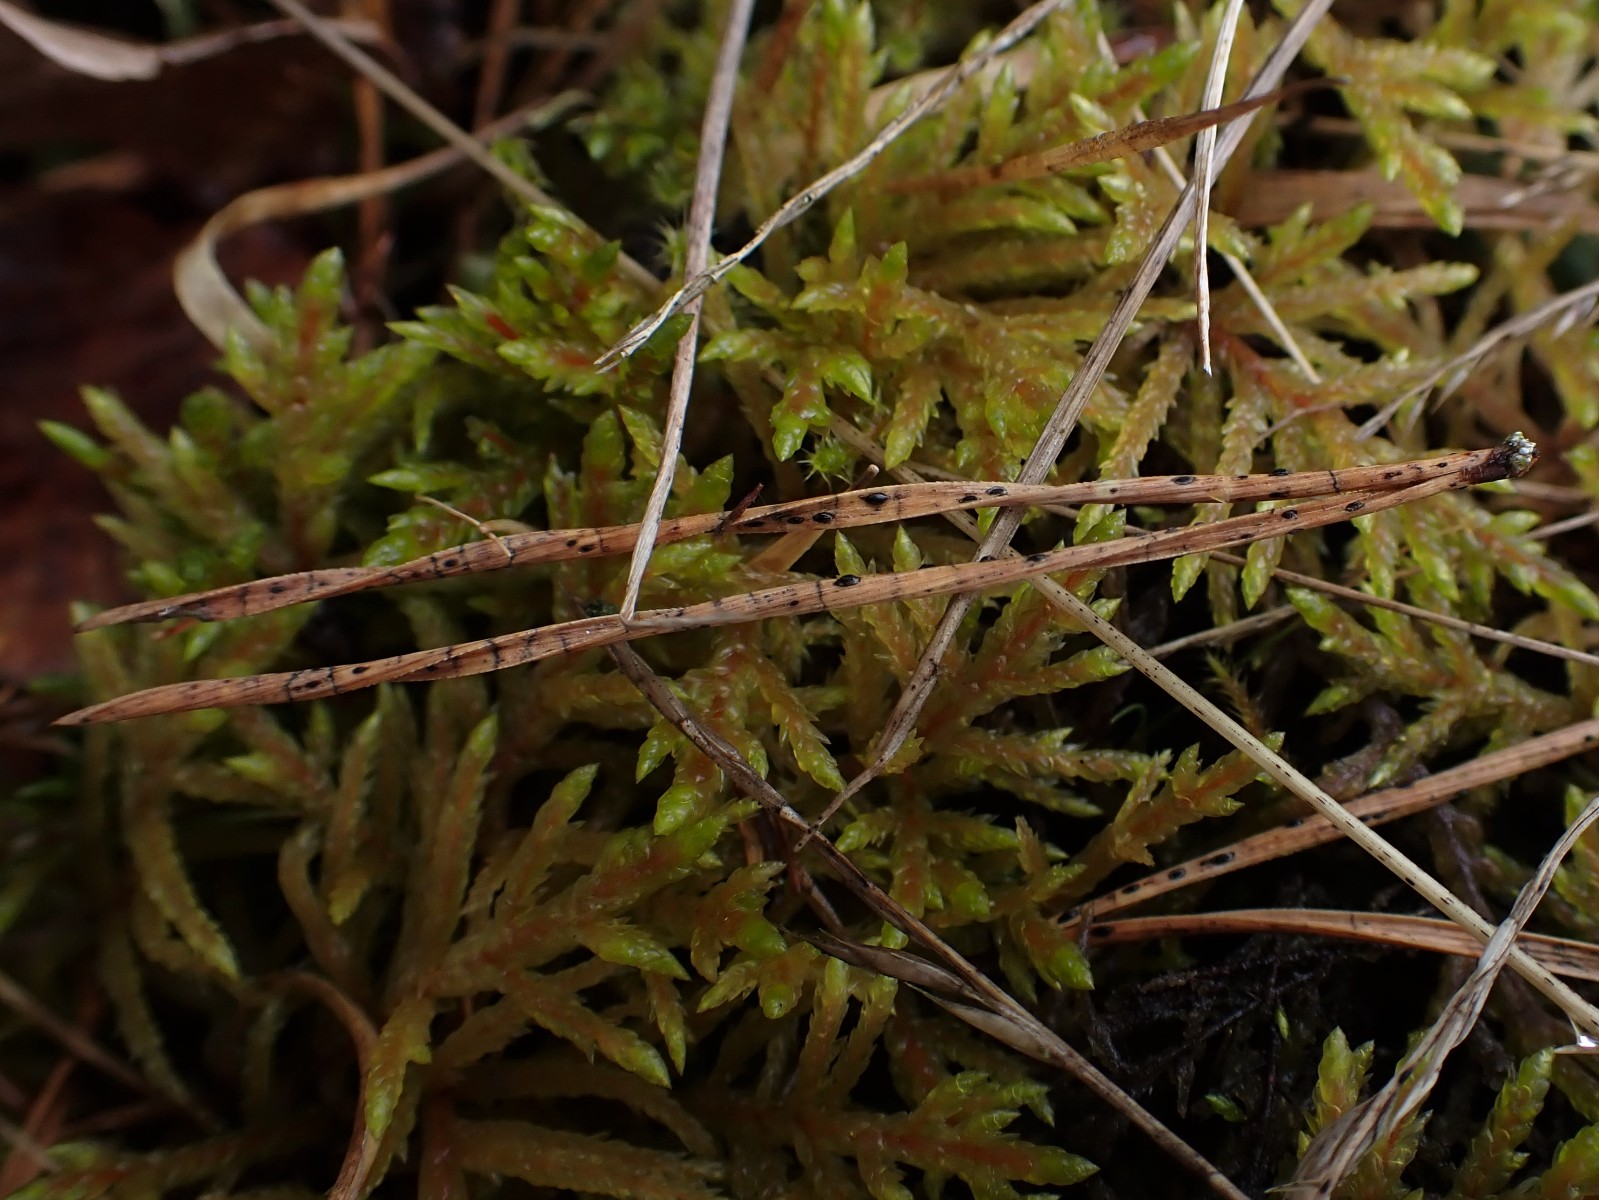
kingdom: Fungi
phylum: Ascomycota
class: Leotiomycetes
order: Rhytismatales
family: Rhytismataceae
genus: Lophodermium
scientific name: Lophodermium pinastri
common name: fyrre-fureplet
